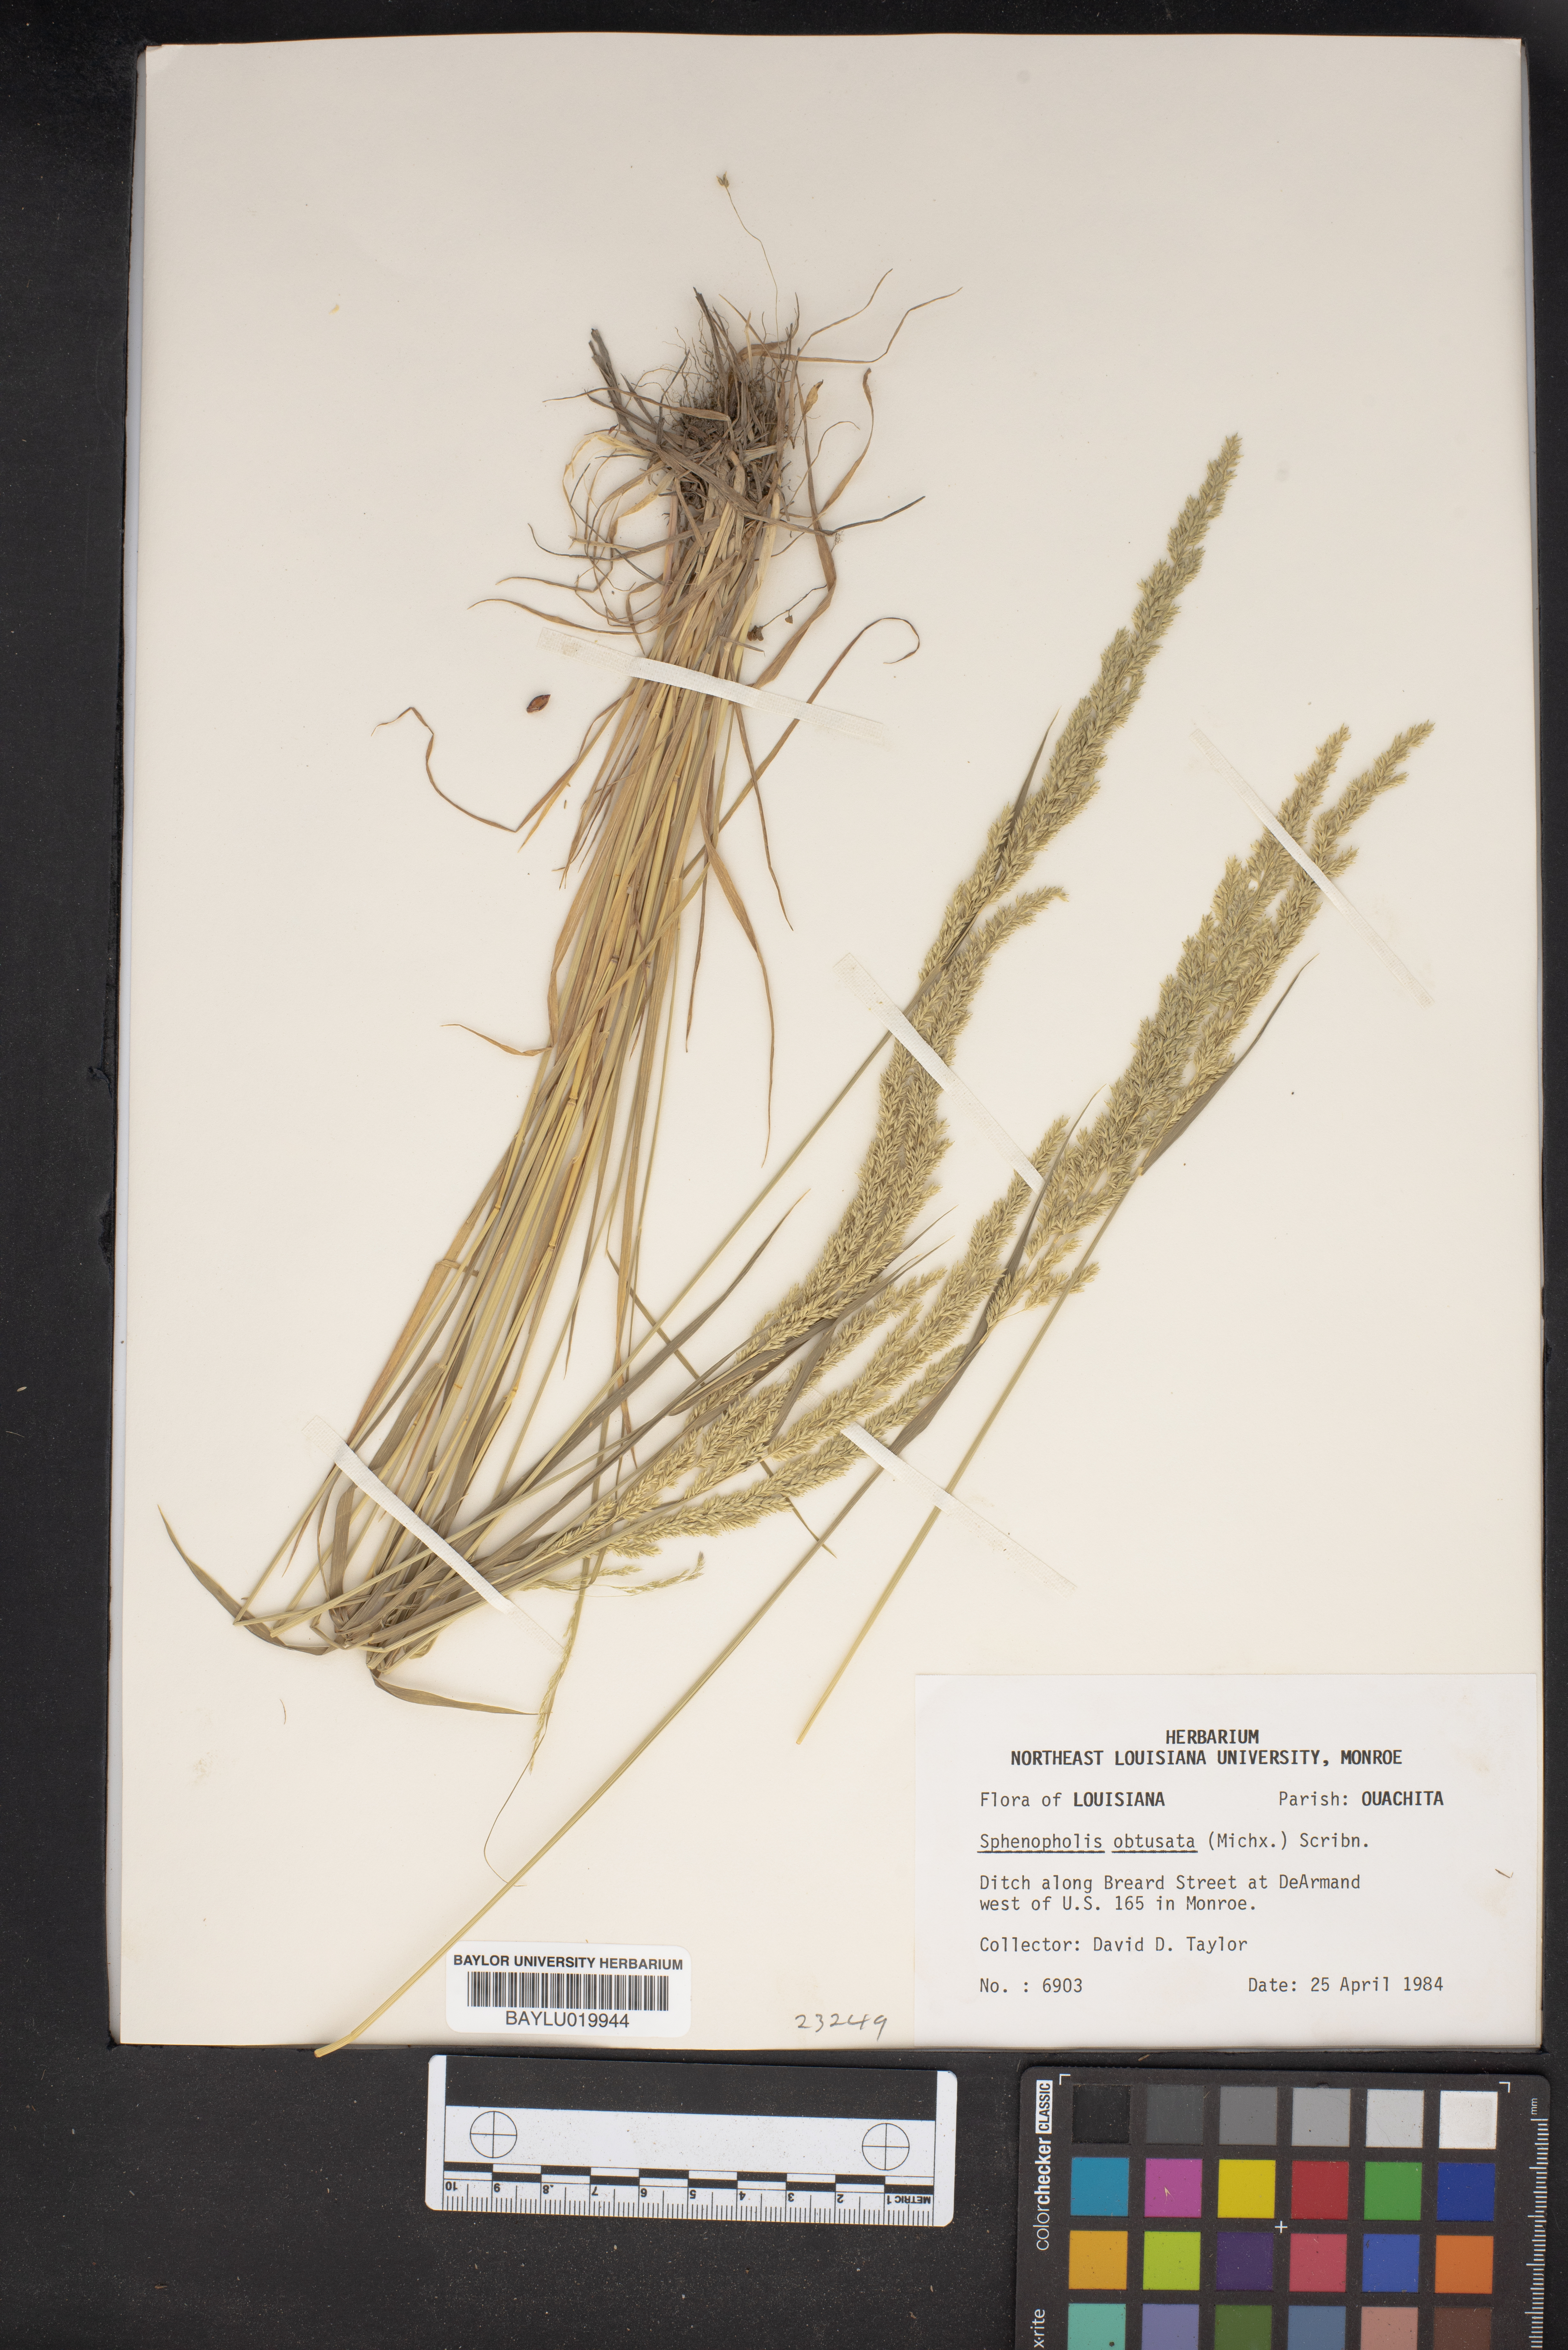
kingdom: Plantae
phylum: Tracheophyta
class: Liliopsida
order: Poales
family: Poaceae
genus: Sphenopholis
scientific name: Sphenopholis obtusata
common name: Prairie grass
